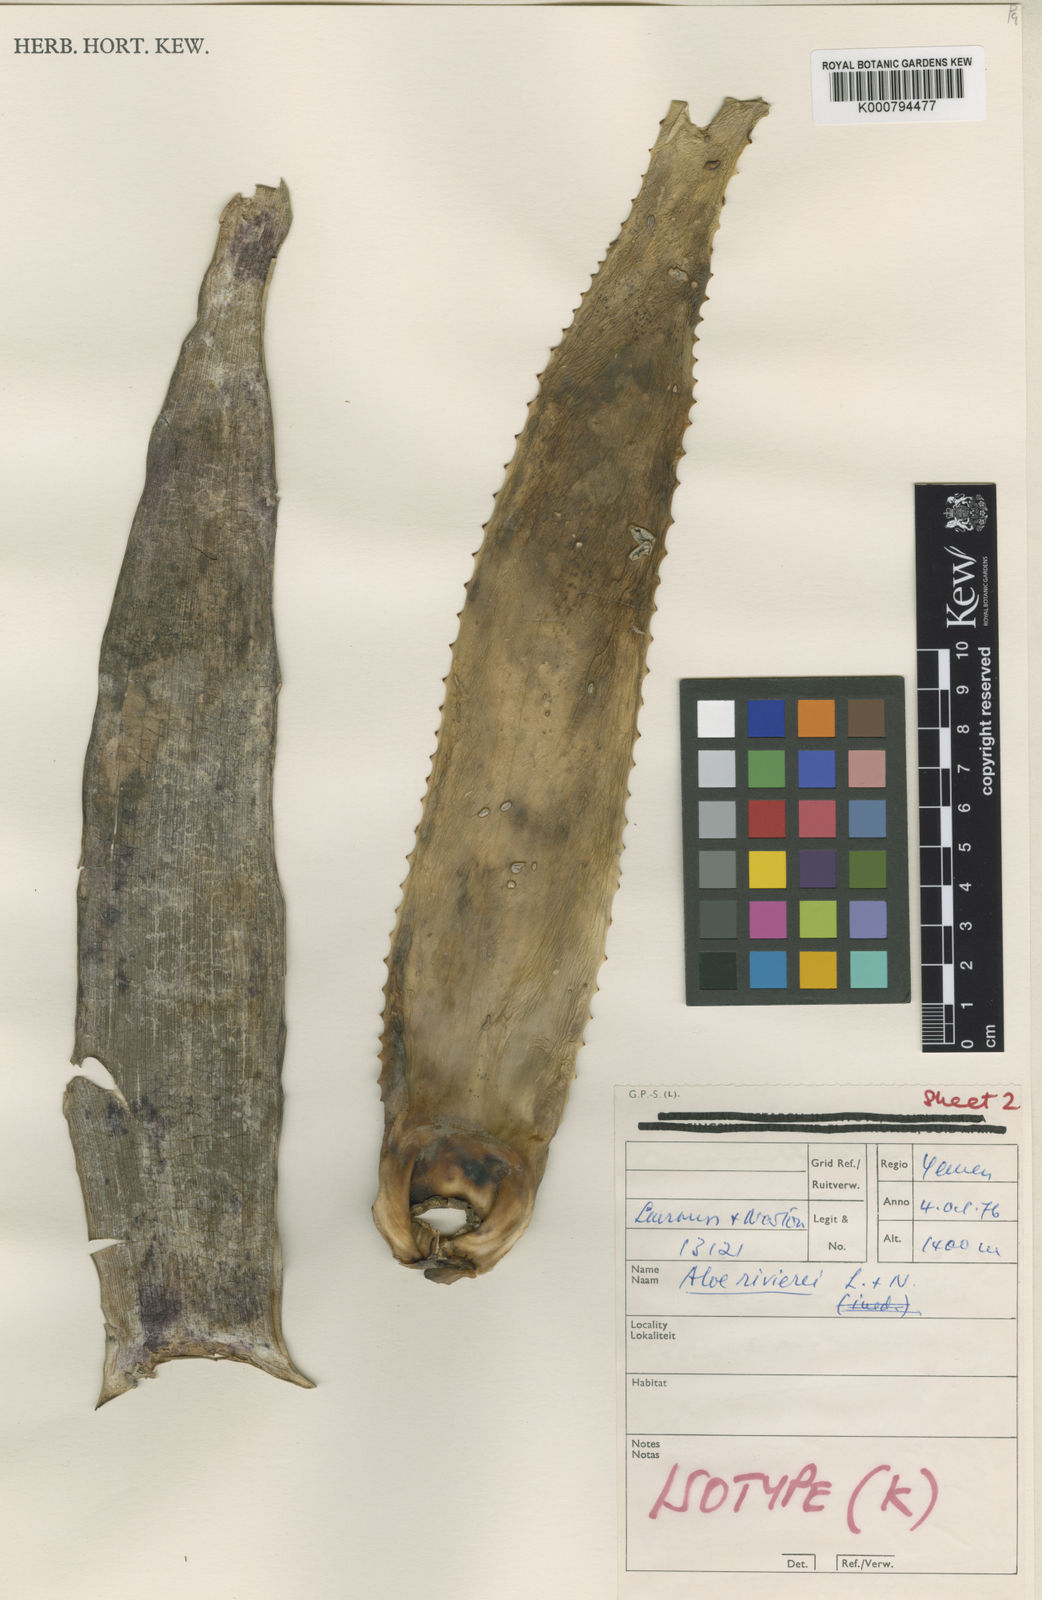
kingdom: Plantae
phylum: Tracheophyta
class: Liliopsida
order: Asparagales
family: Asphodelaceae
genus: Aloe
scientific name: Aloe rivierei
